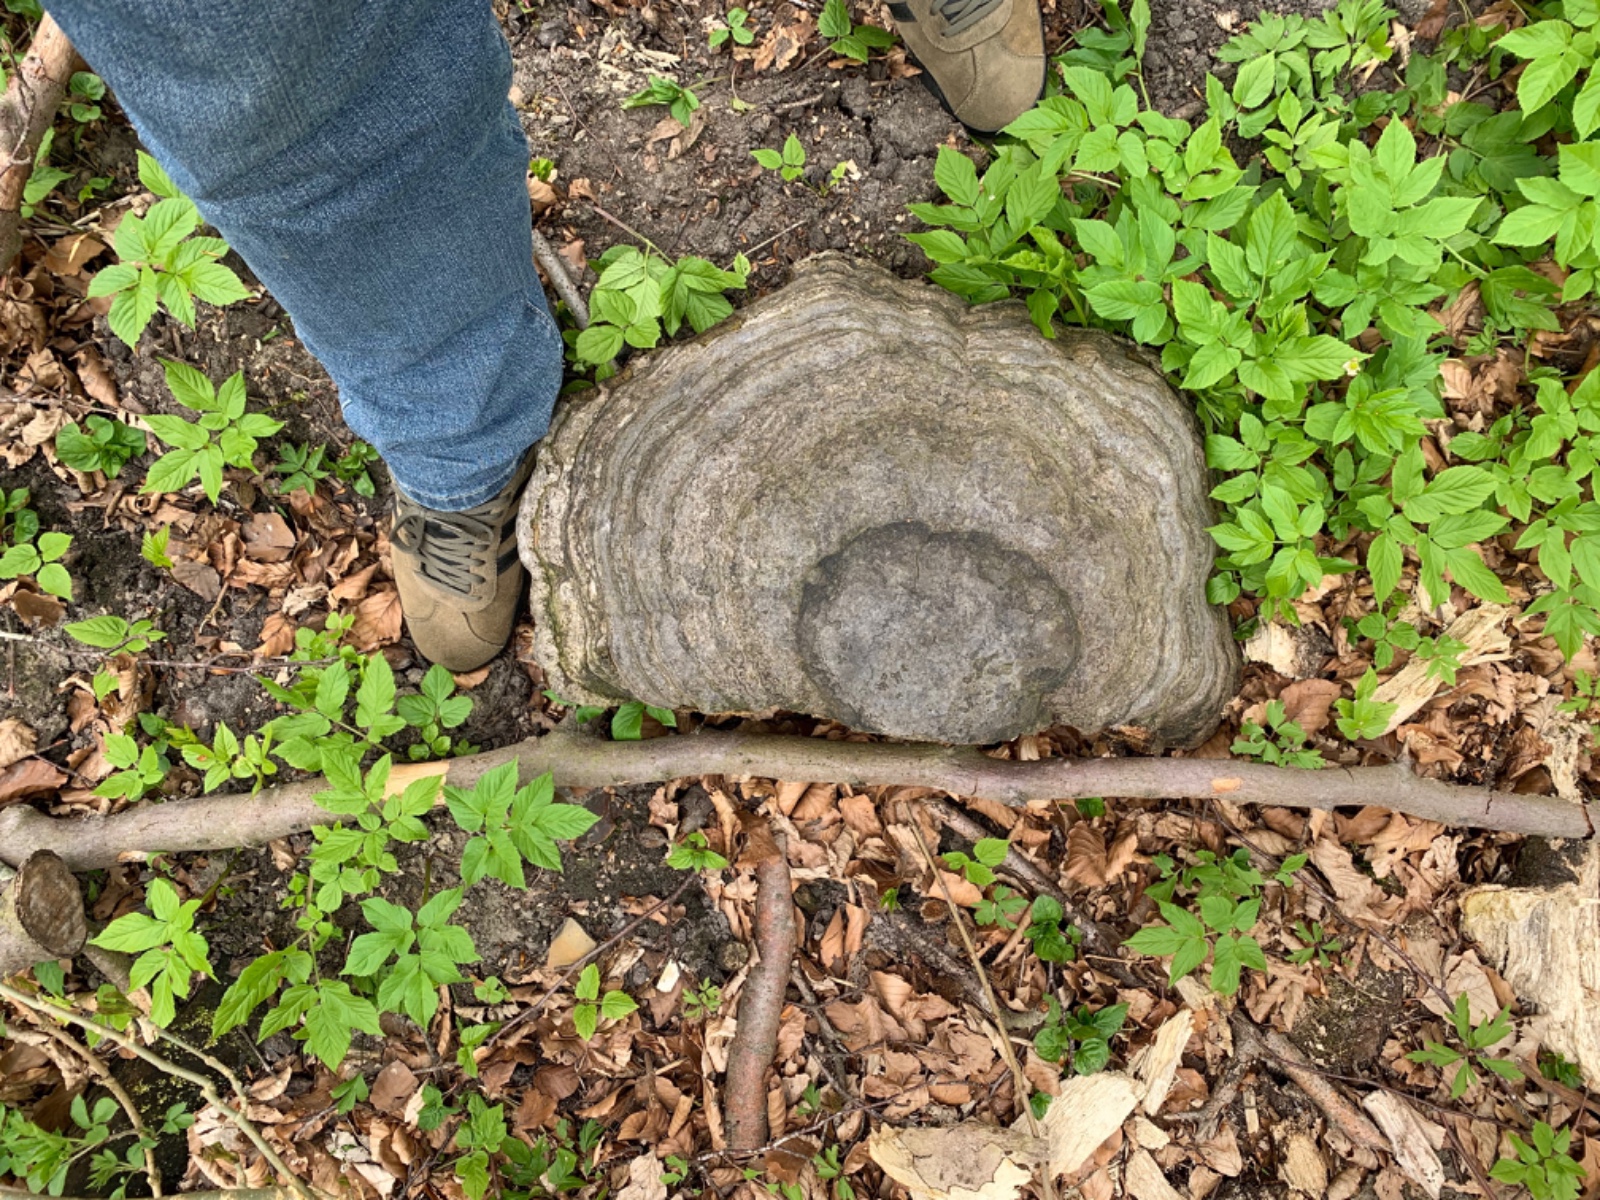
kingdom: Fungi
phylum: Basidiomycota
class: Agaricomycetes
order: Polyporales
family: Polyporaceae
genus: Fomes
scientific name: Fomes fomentarius
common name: tøndersvamp
